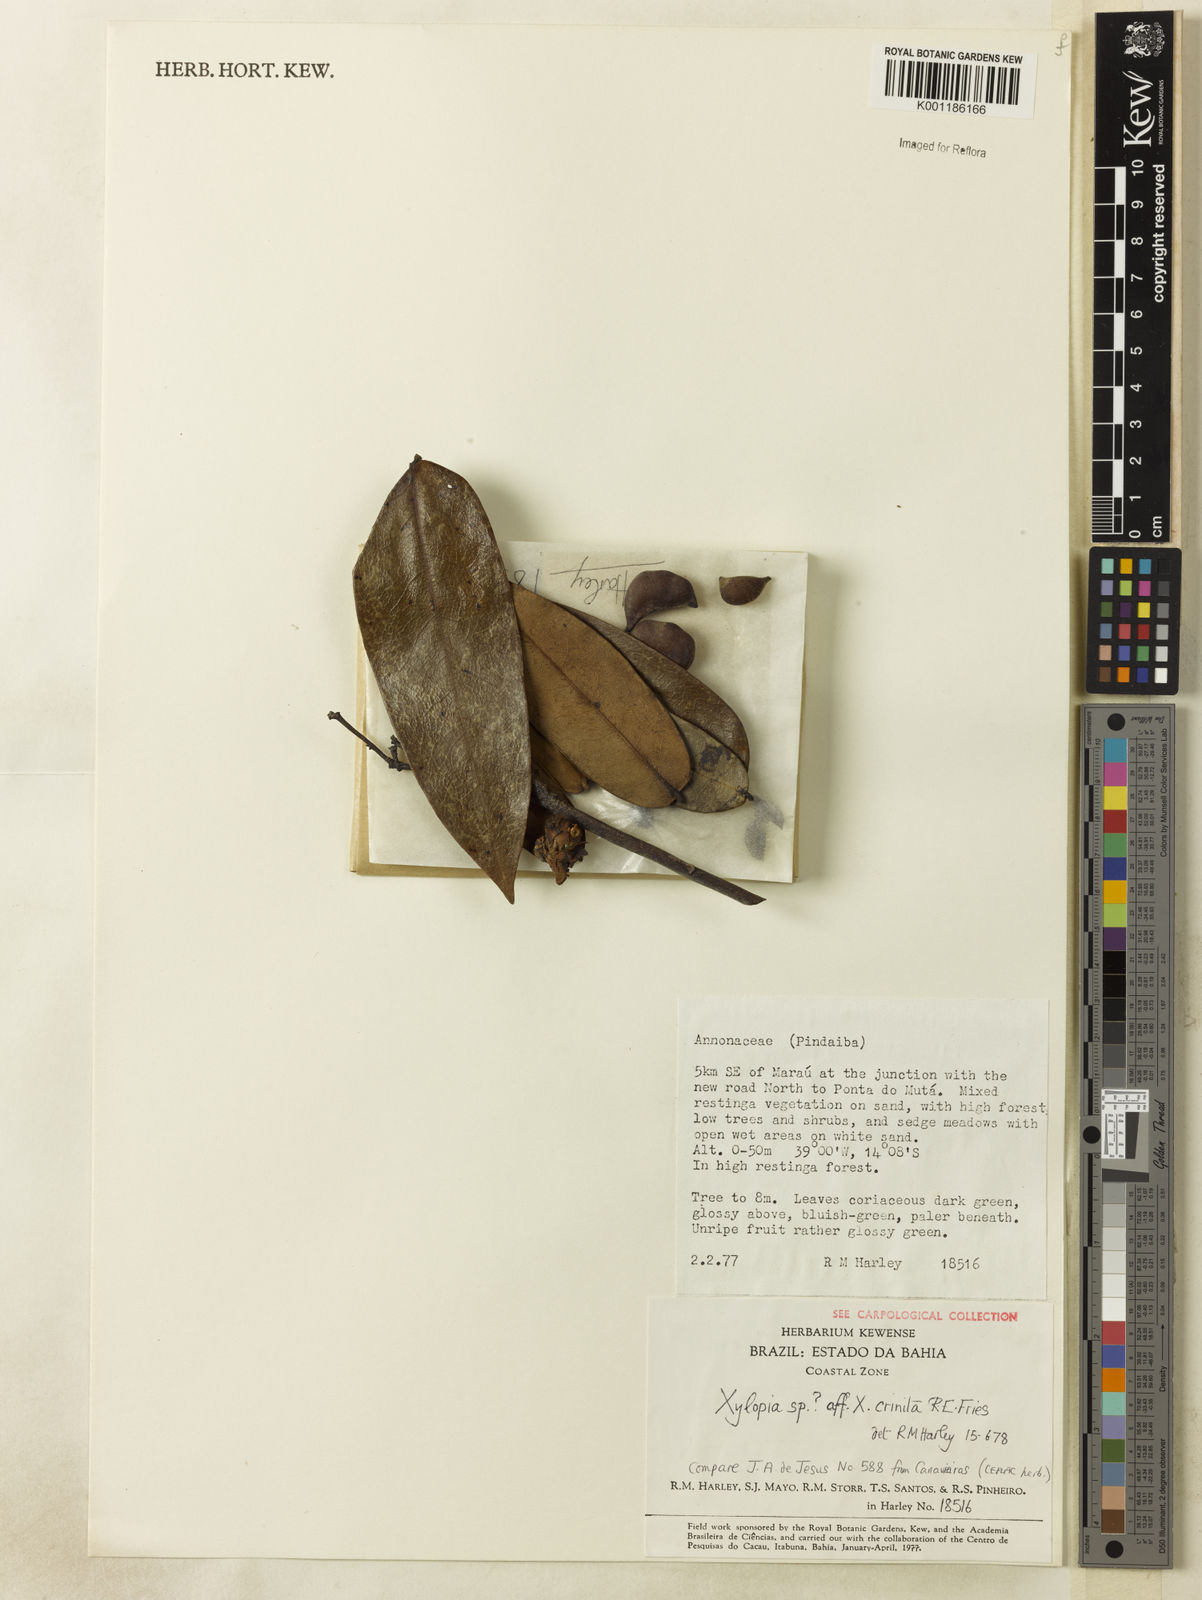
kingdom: Plantae
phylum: Tracheophyta
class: Magnoliopsida
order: Magnoliales
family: Annonaceae
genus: Xylopia
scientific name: Xylopia crinita
